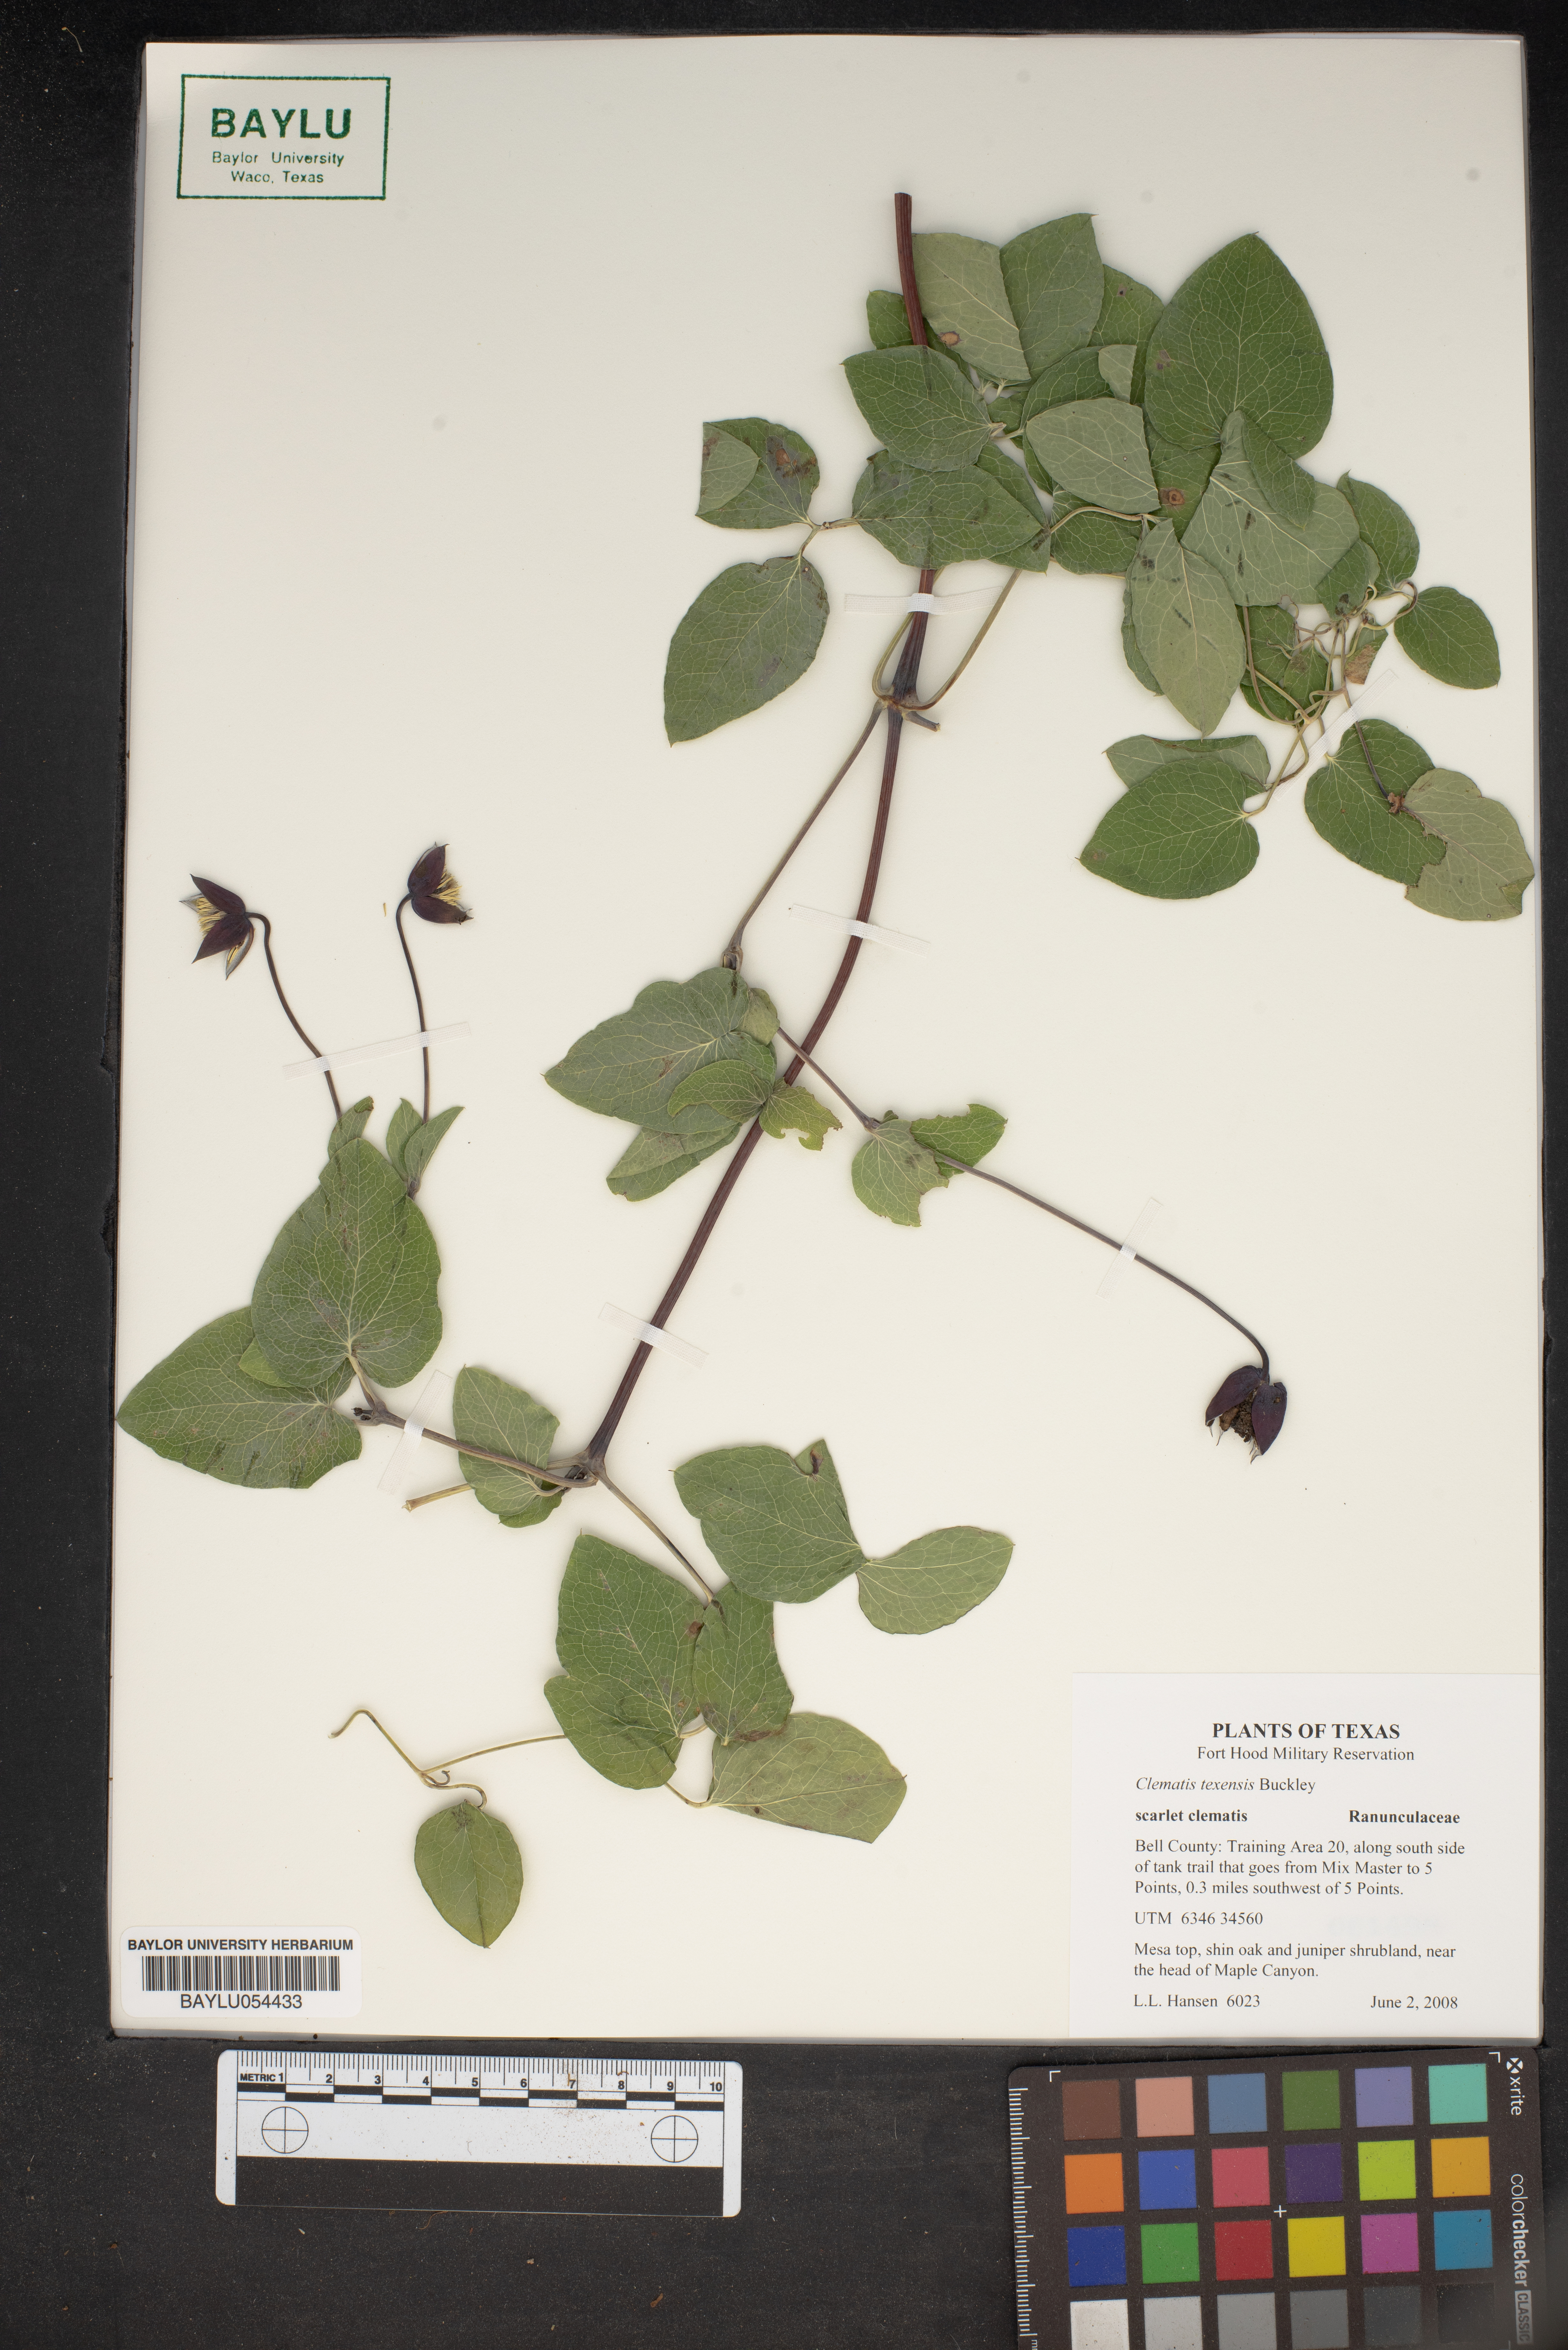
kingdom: Plantae
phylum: Tracheophyta
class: Magnoliopsida
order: Ranunculales
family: Ranunculaceae
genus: Clematis
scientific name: Clematis texensis
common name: Crimson clematis
